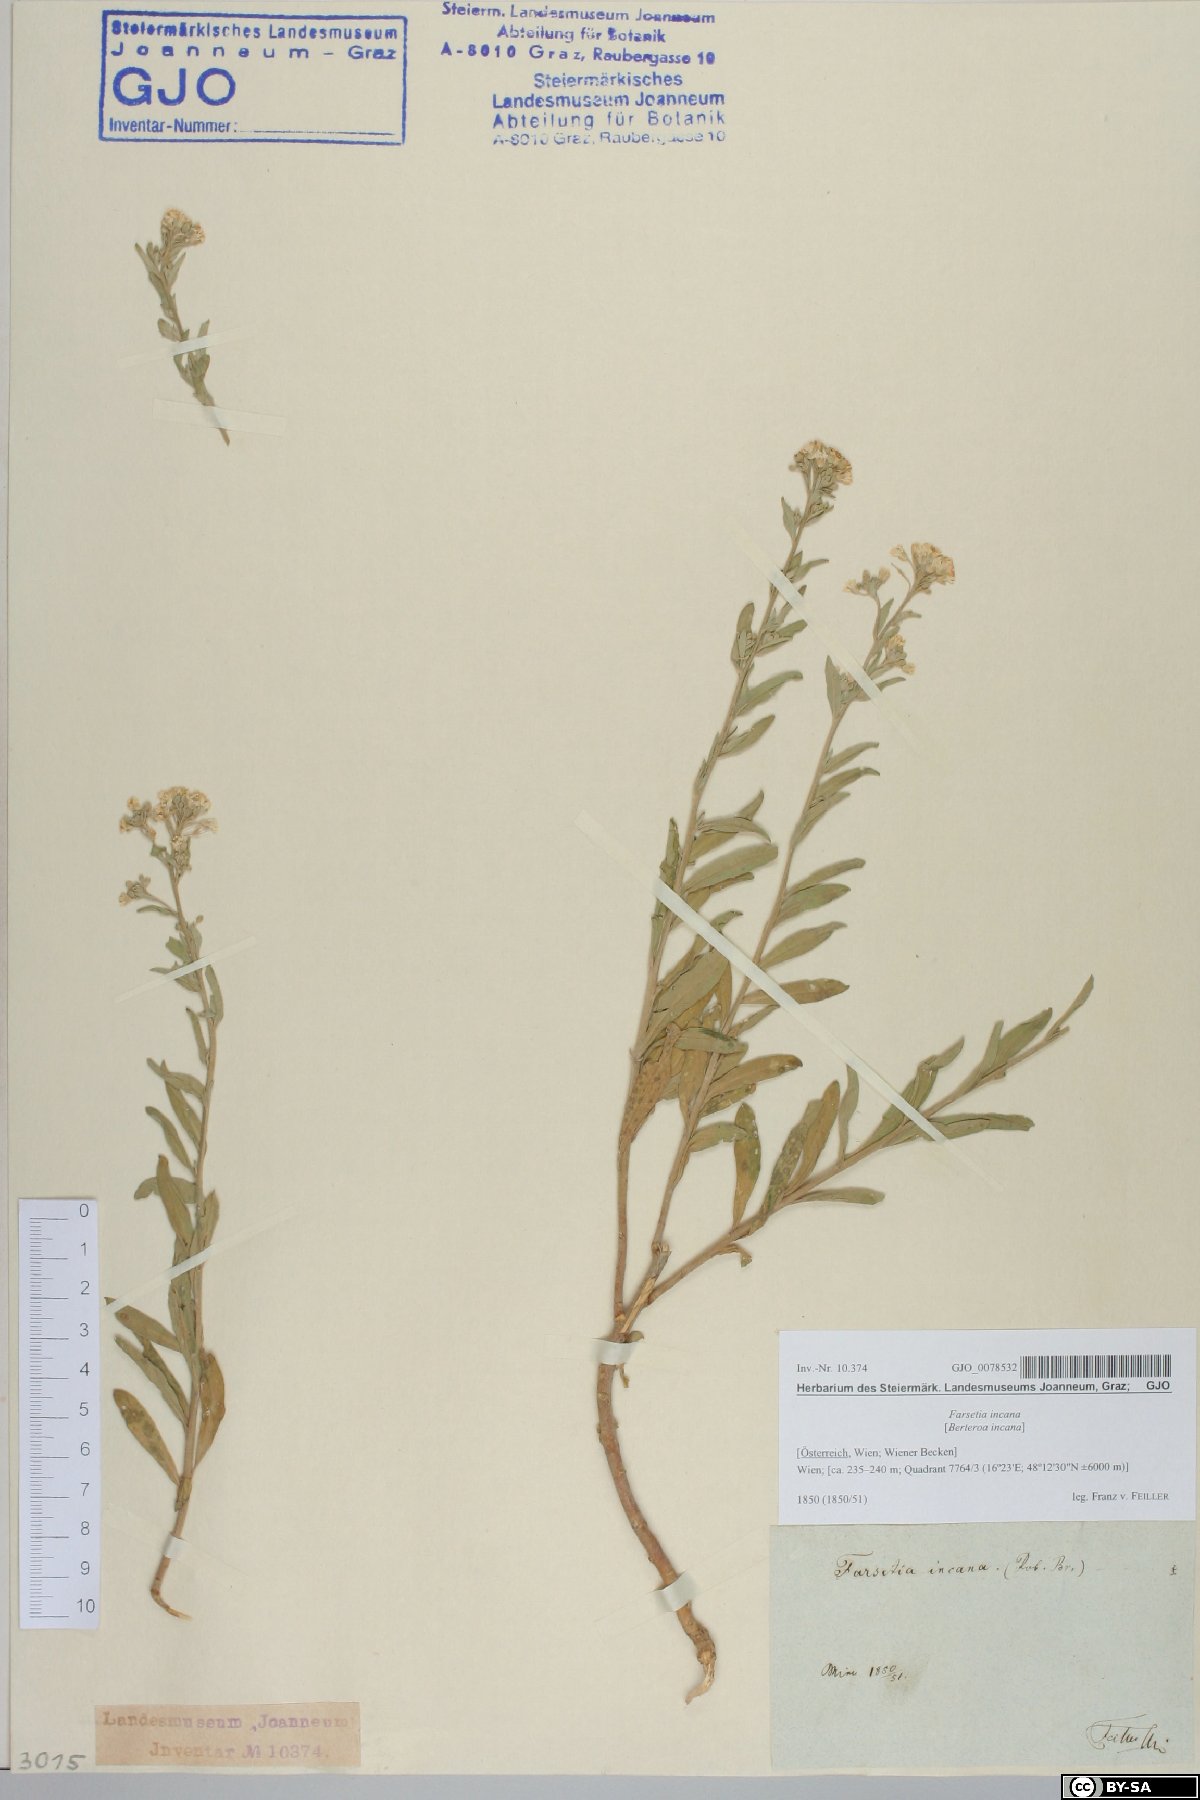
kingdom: Plantae
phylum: Tracheophyta
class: Magnoliopsida
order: Brassicales
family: Brassicaceae
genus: Berteroa
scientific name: Berteroa incana
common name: Hoary alison
